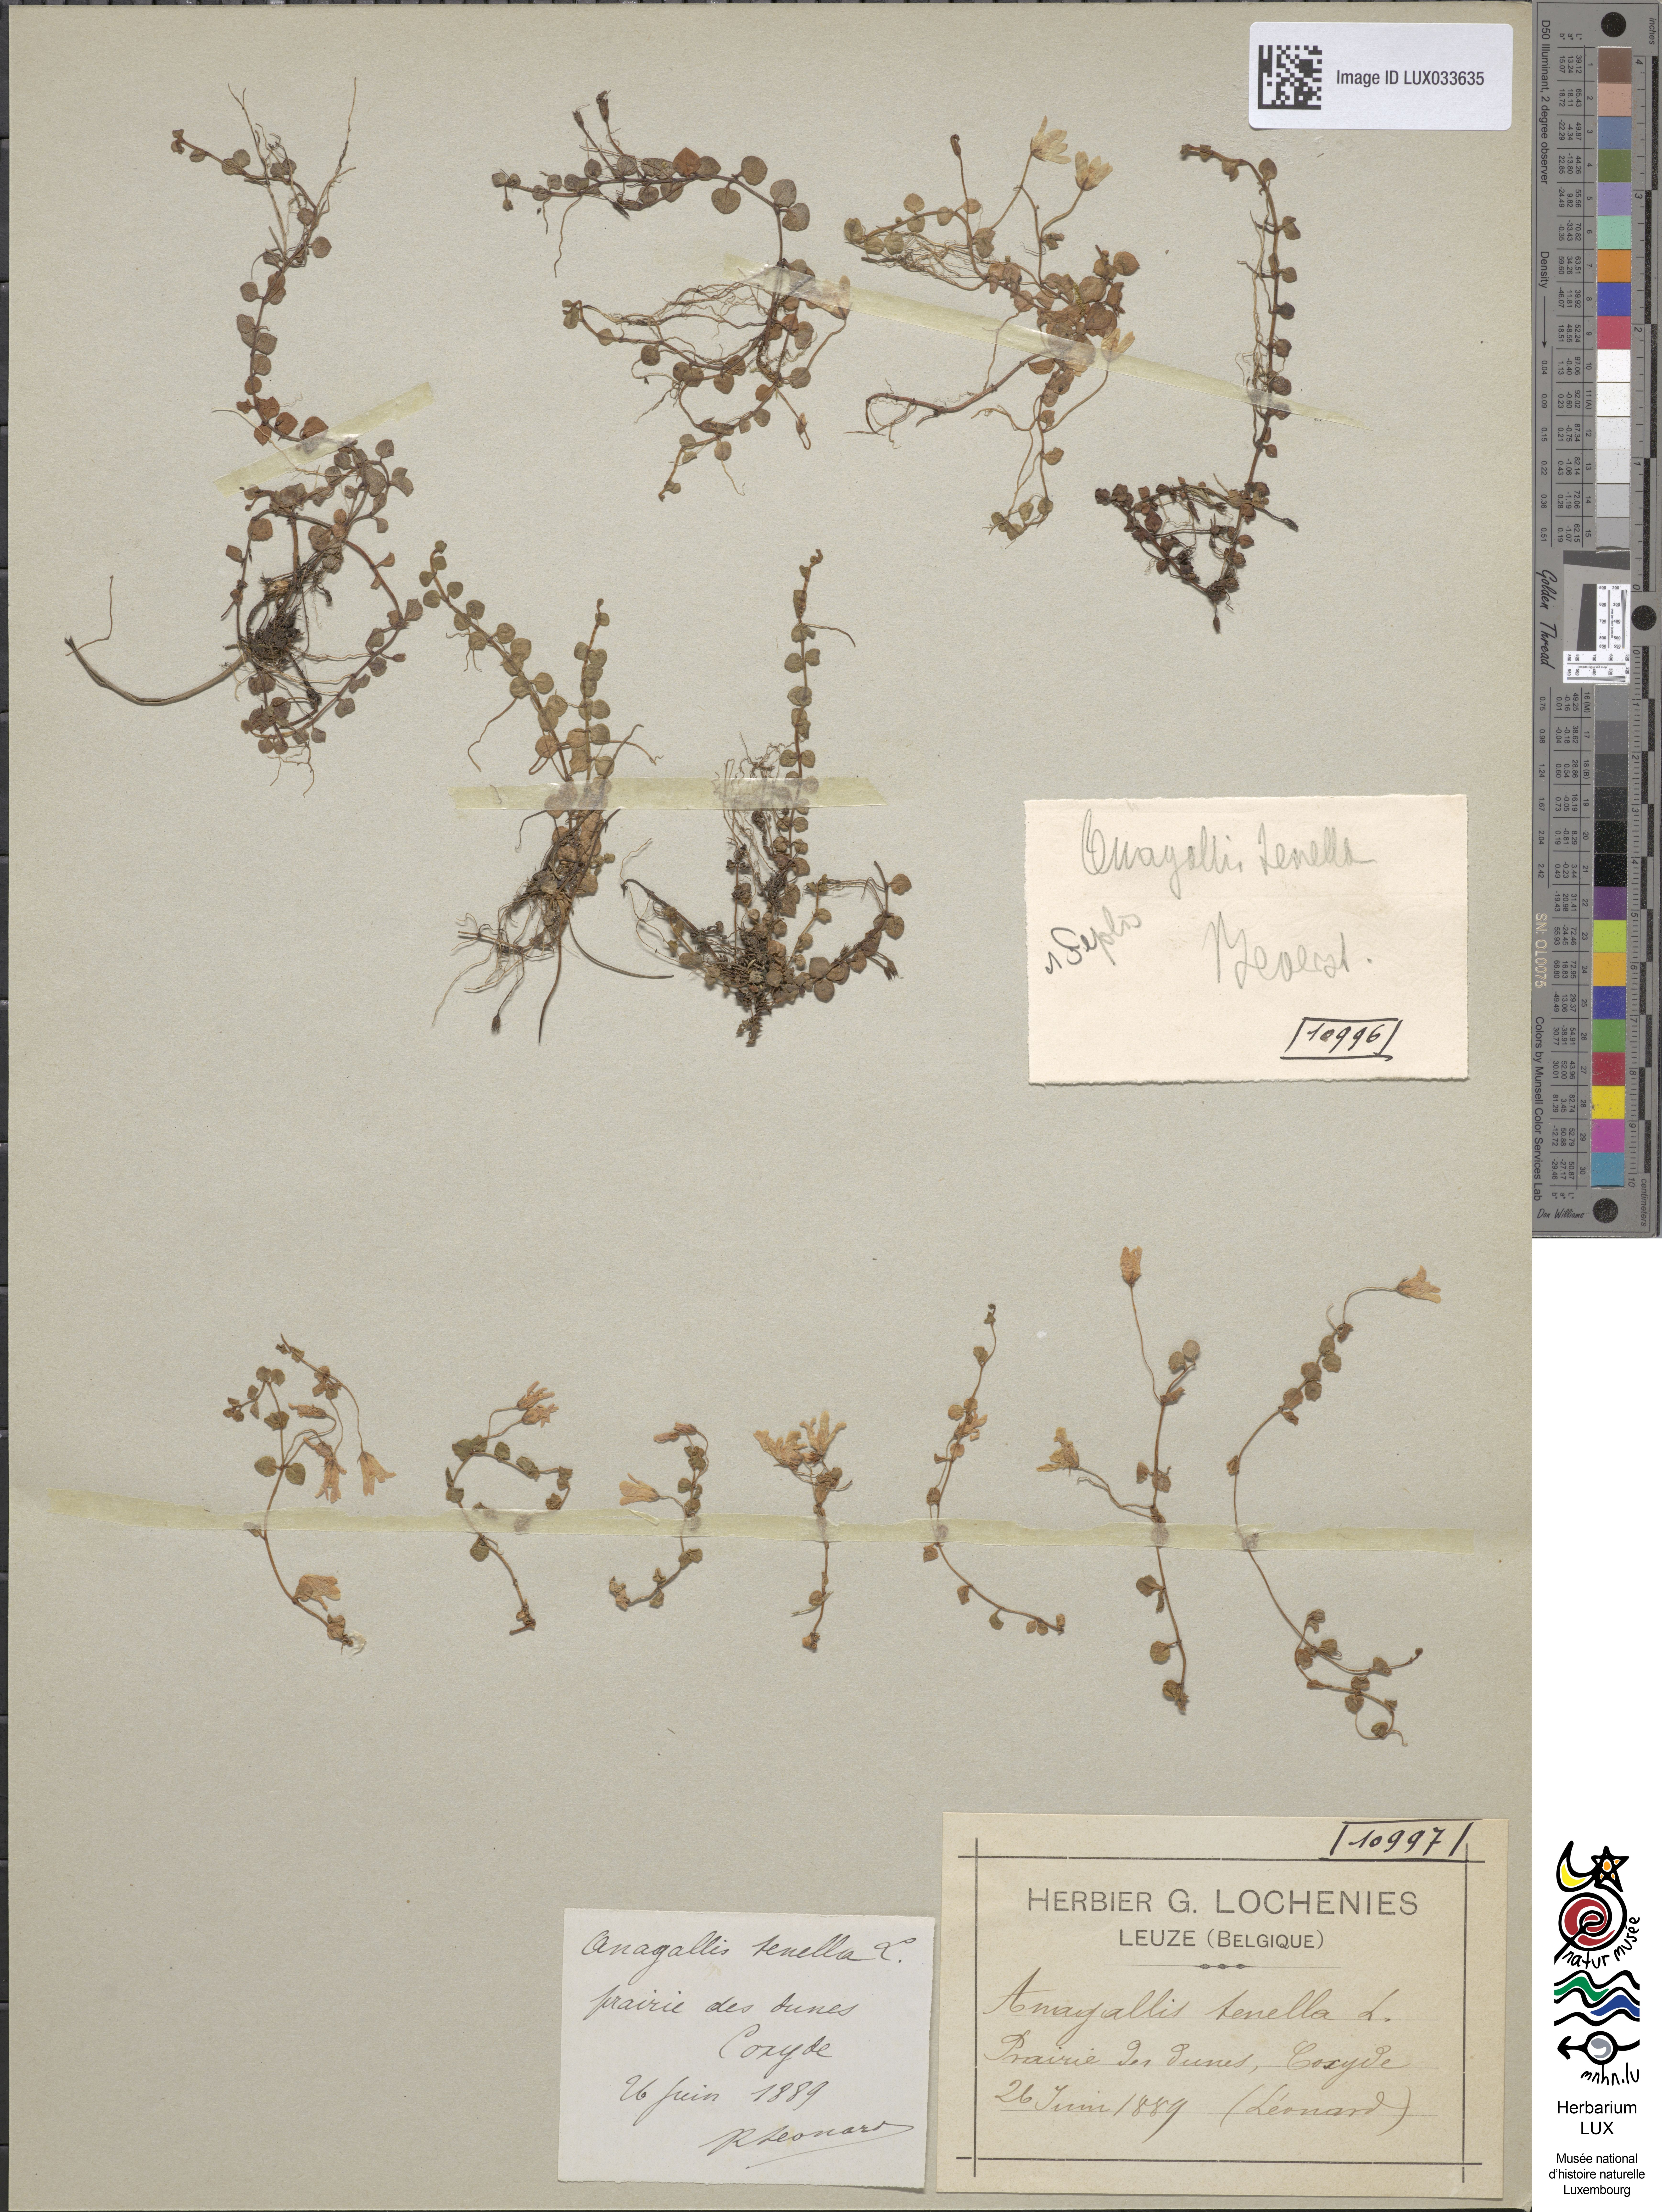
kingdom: Plantae
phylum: Tracheophyta
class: Magnoliopsida
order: Ericales
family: Primulaceae
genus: Lysimachia
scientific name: Lysimachia tenella
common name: European bog pimpernel
